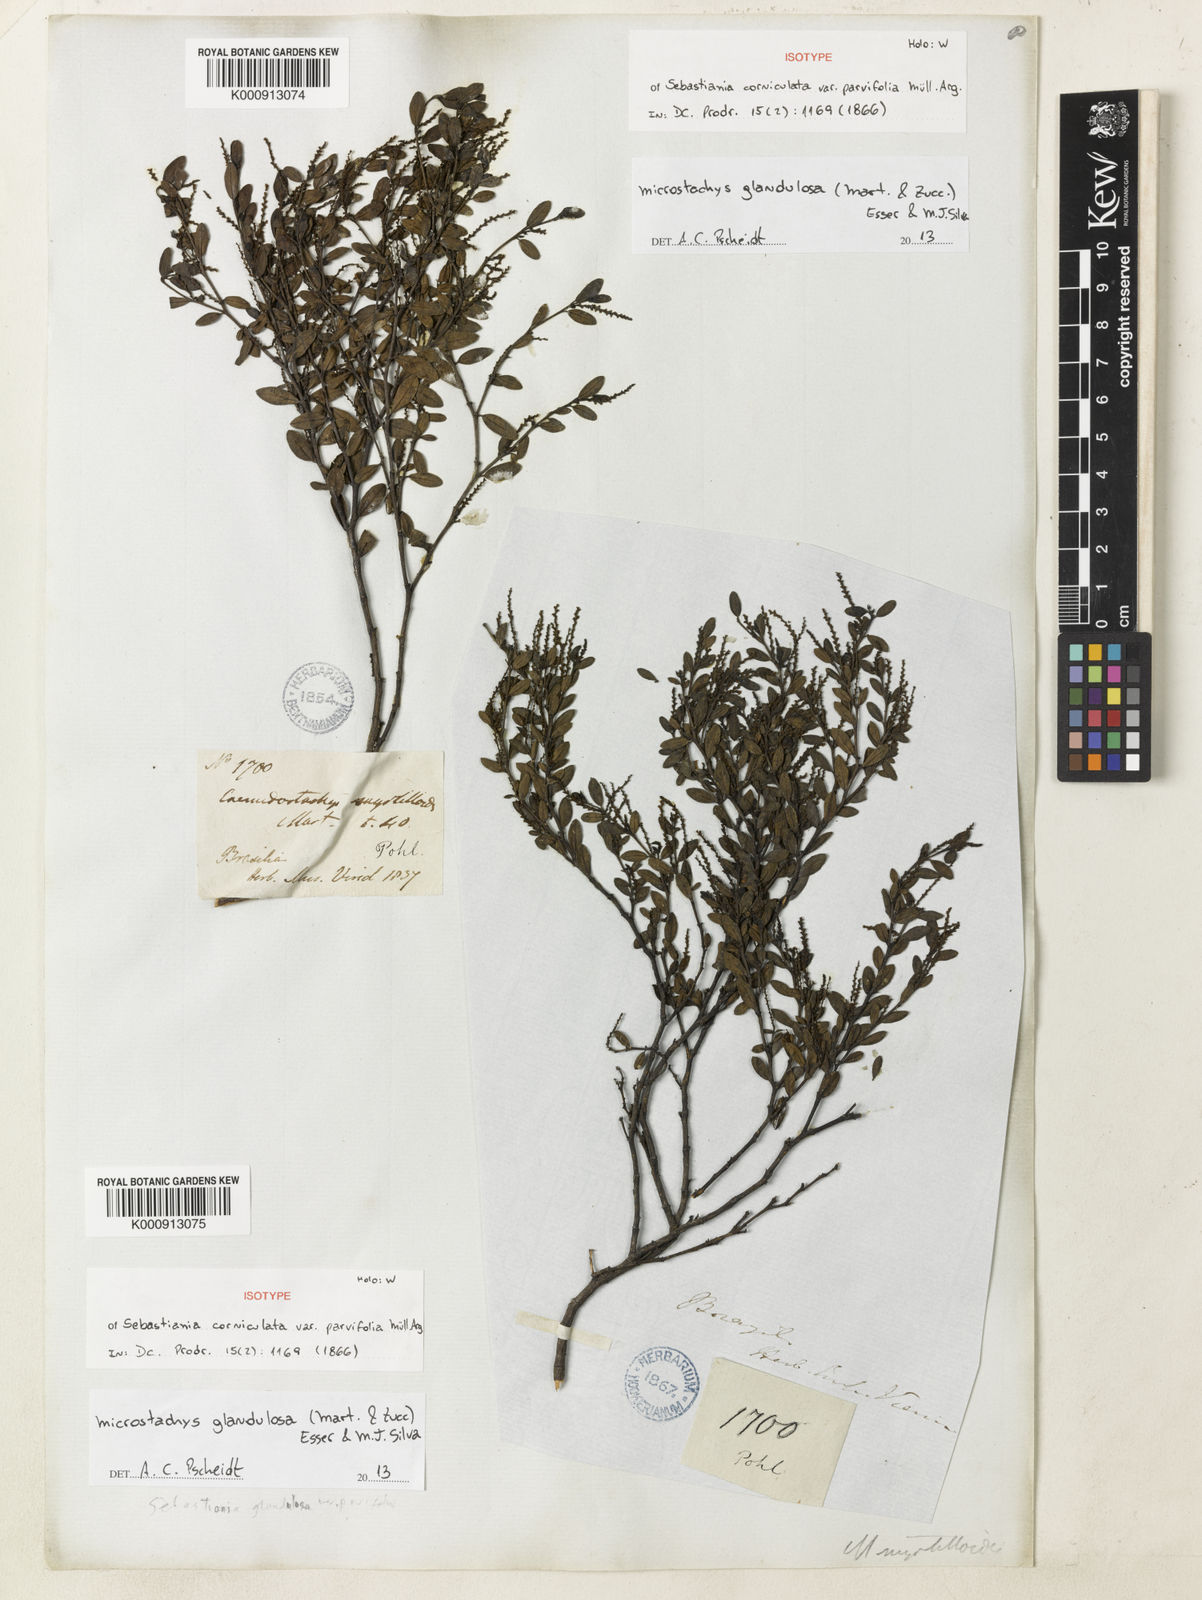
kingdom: Plantae
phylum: Tracheophyta
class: Magnoliopsida
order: Malpighiales
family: Euphorbiaceae
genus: Microstachys
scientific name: Microstachys glandulosa
